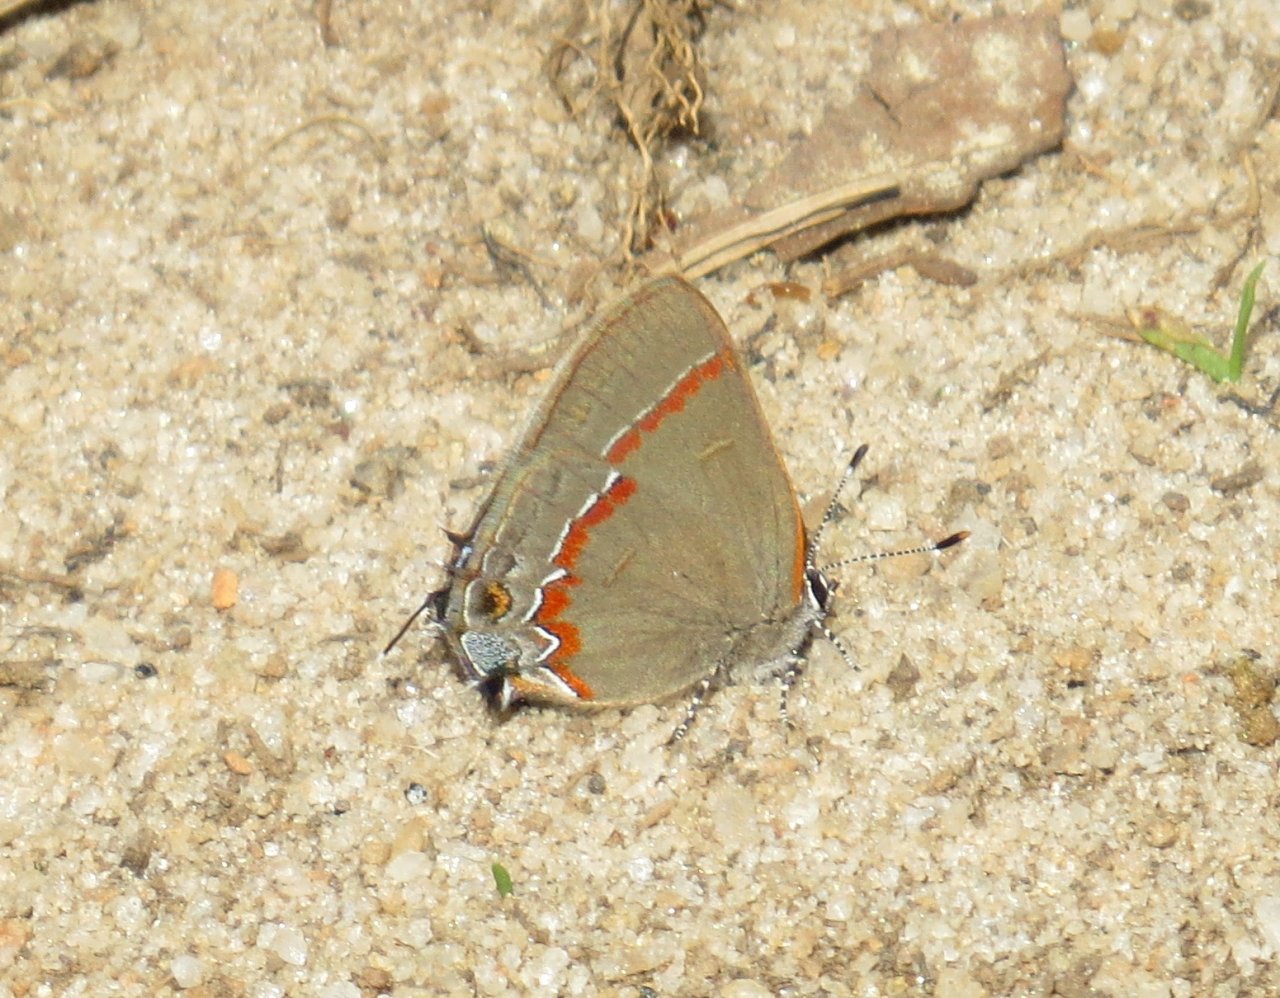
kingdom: Animalia
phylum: Arthropoda
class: Insecta
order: Lepidoptera
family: Lycaenidae
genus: Calycopis
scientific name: Calycopis cecrops
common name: Red-banded Hairstreak
